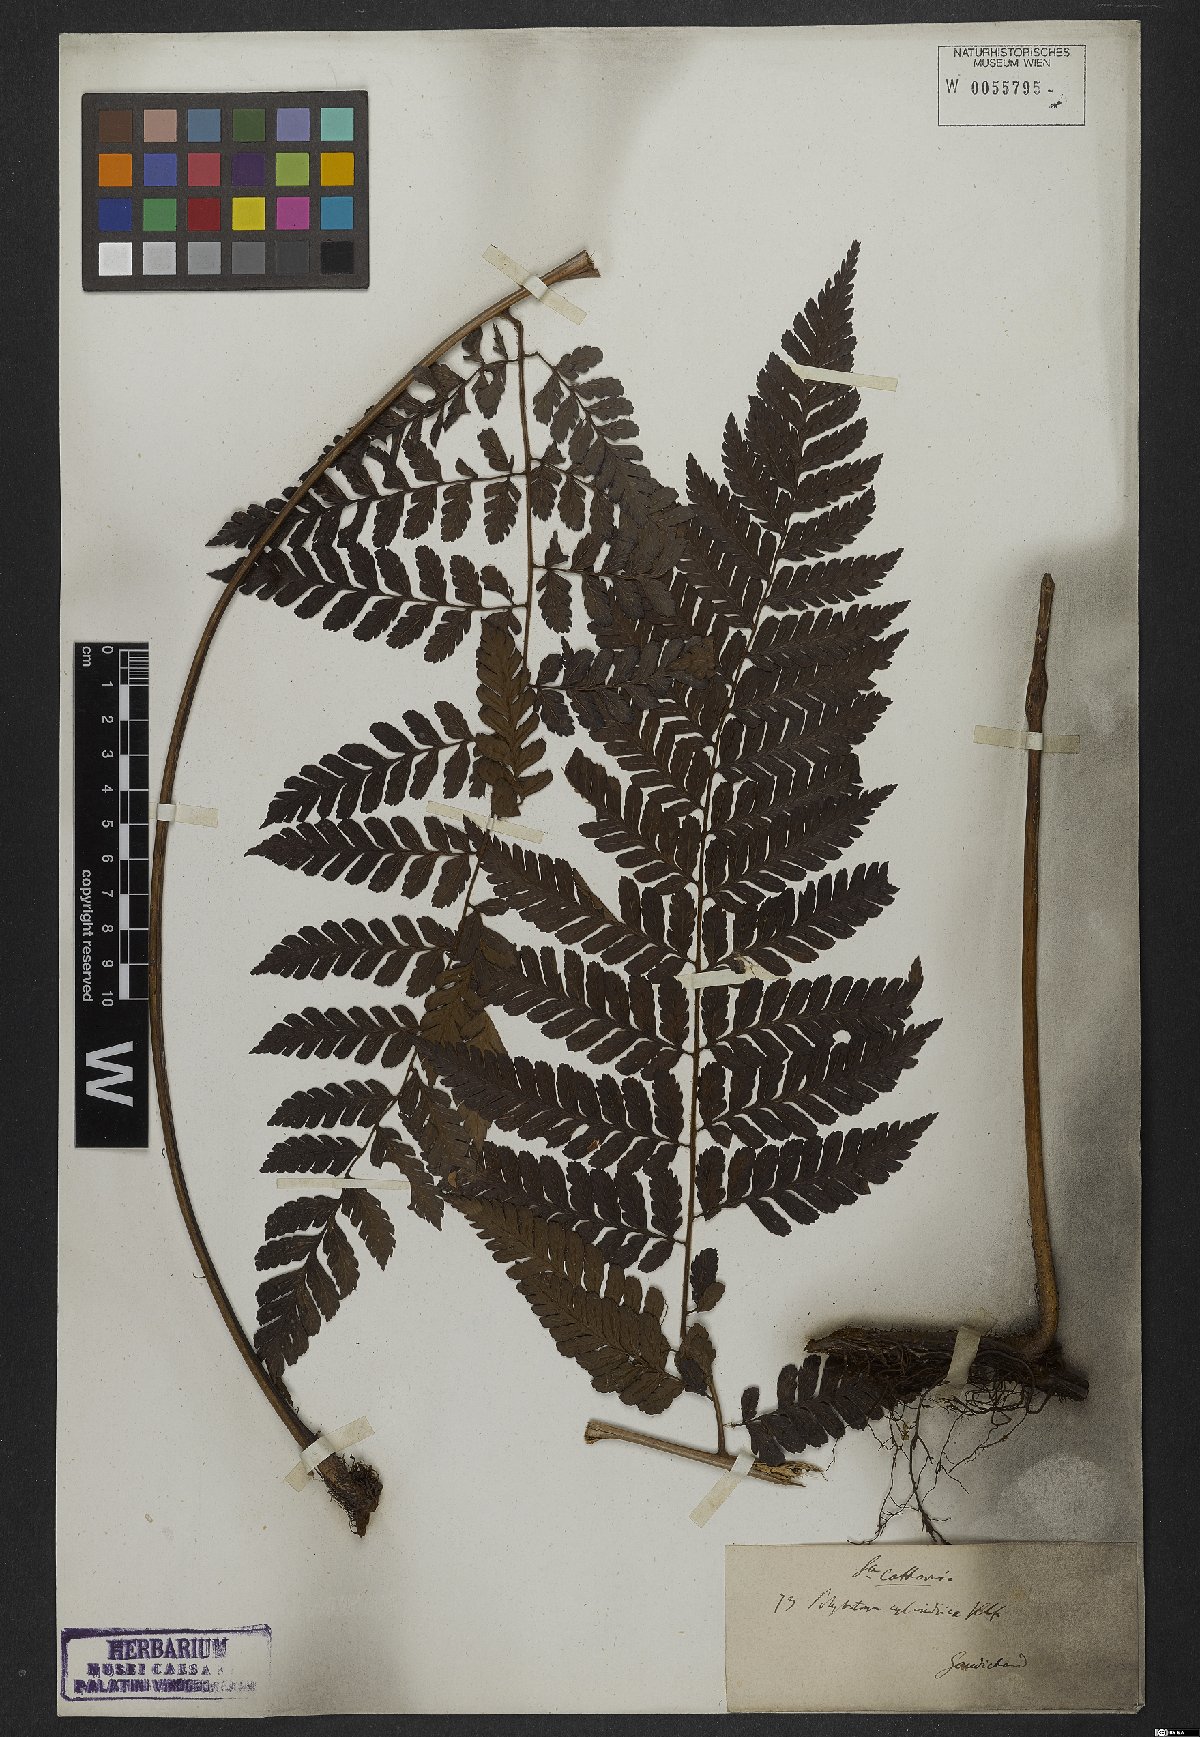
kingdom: Plantae
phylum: Tracheophyta
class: Polypodiopsida
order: Polypodiales
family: Dryopteridaceae
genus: Polybotrya
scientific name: Polybotrya osmundacea
